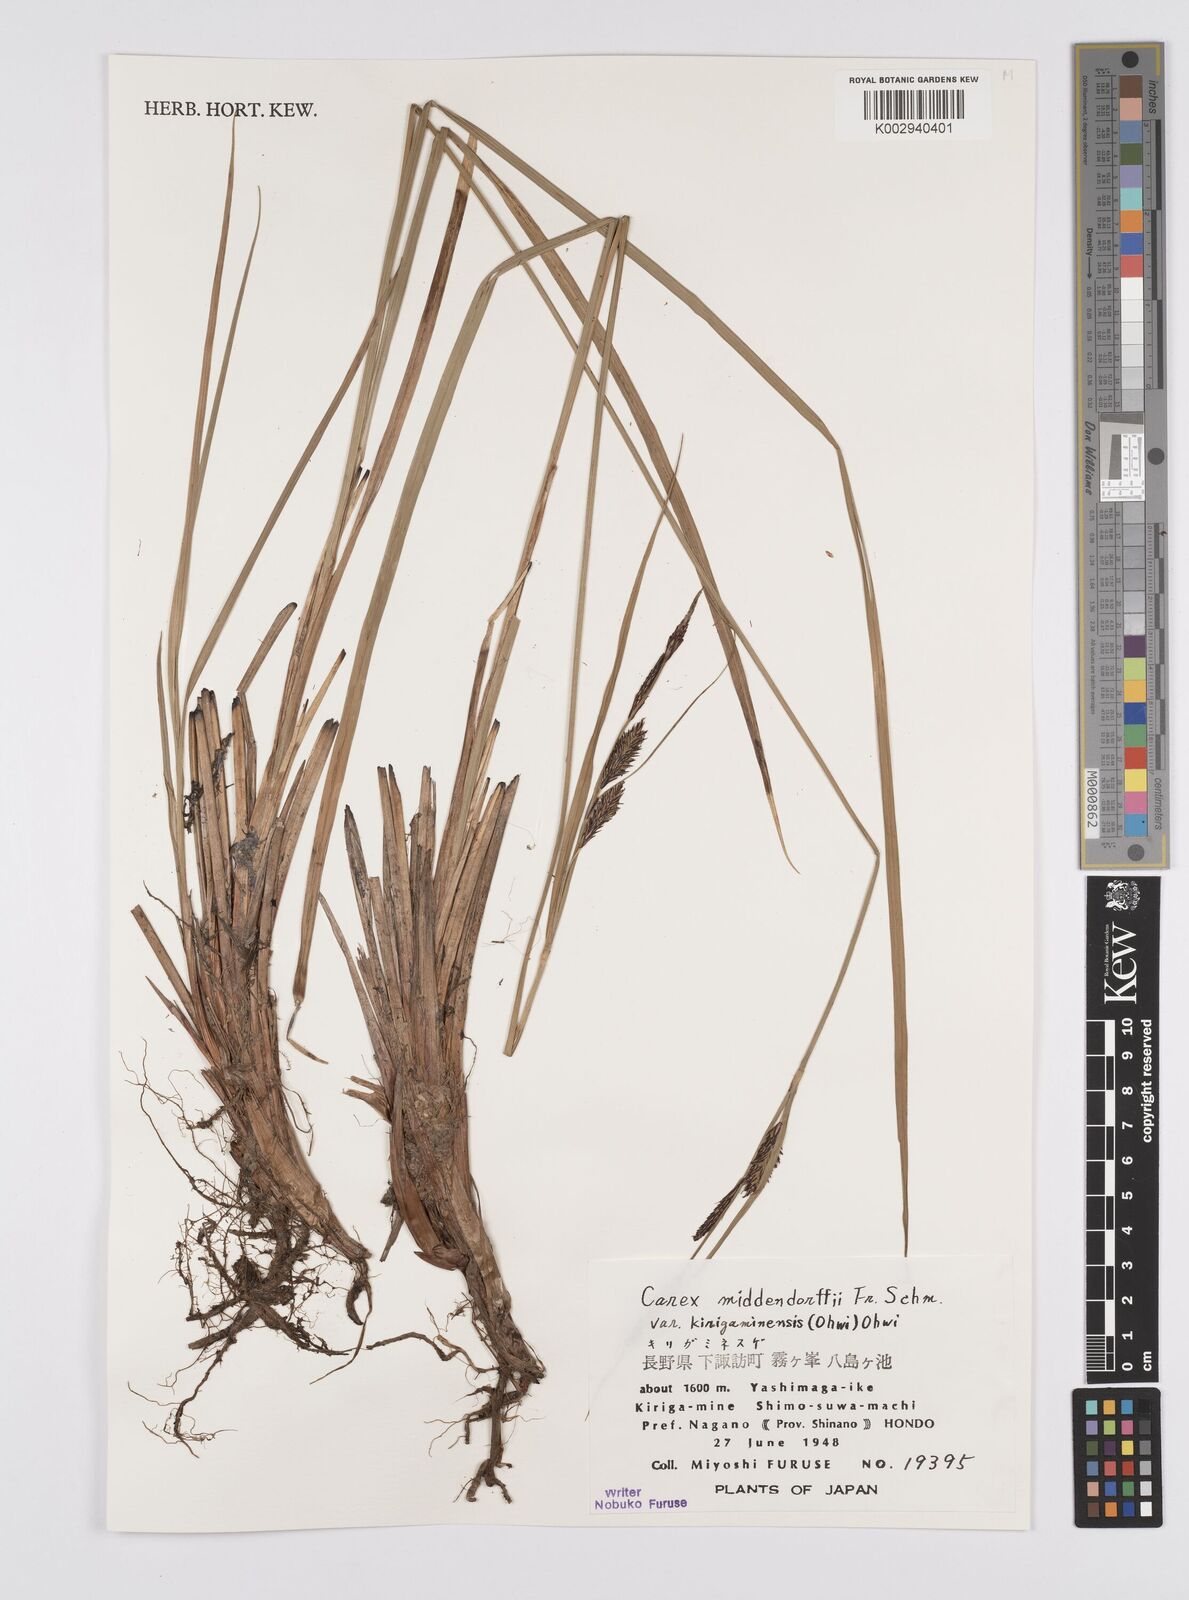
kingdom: Plantae
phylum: Tracheophyta
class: Liliopsida
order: Poales
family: Cyperaceae
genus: Carex
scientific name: Carex middendorffii
